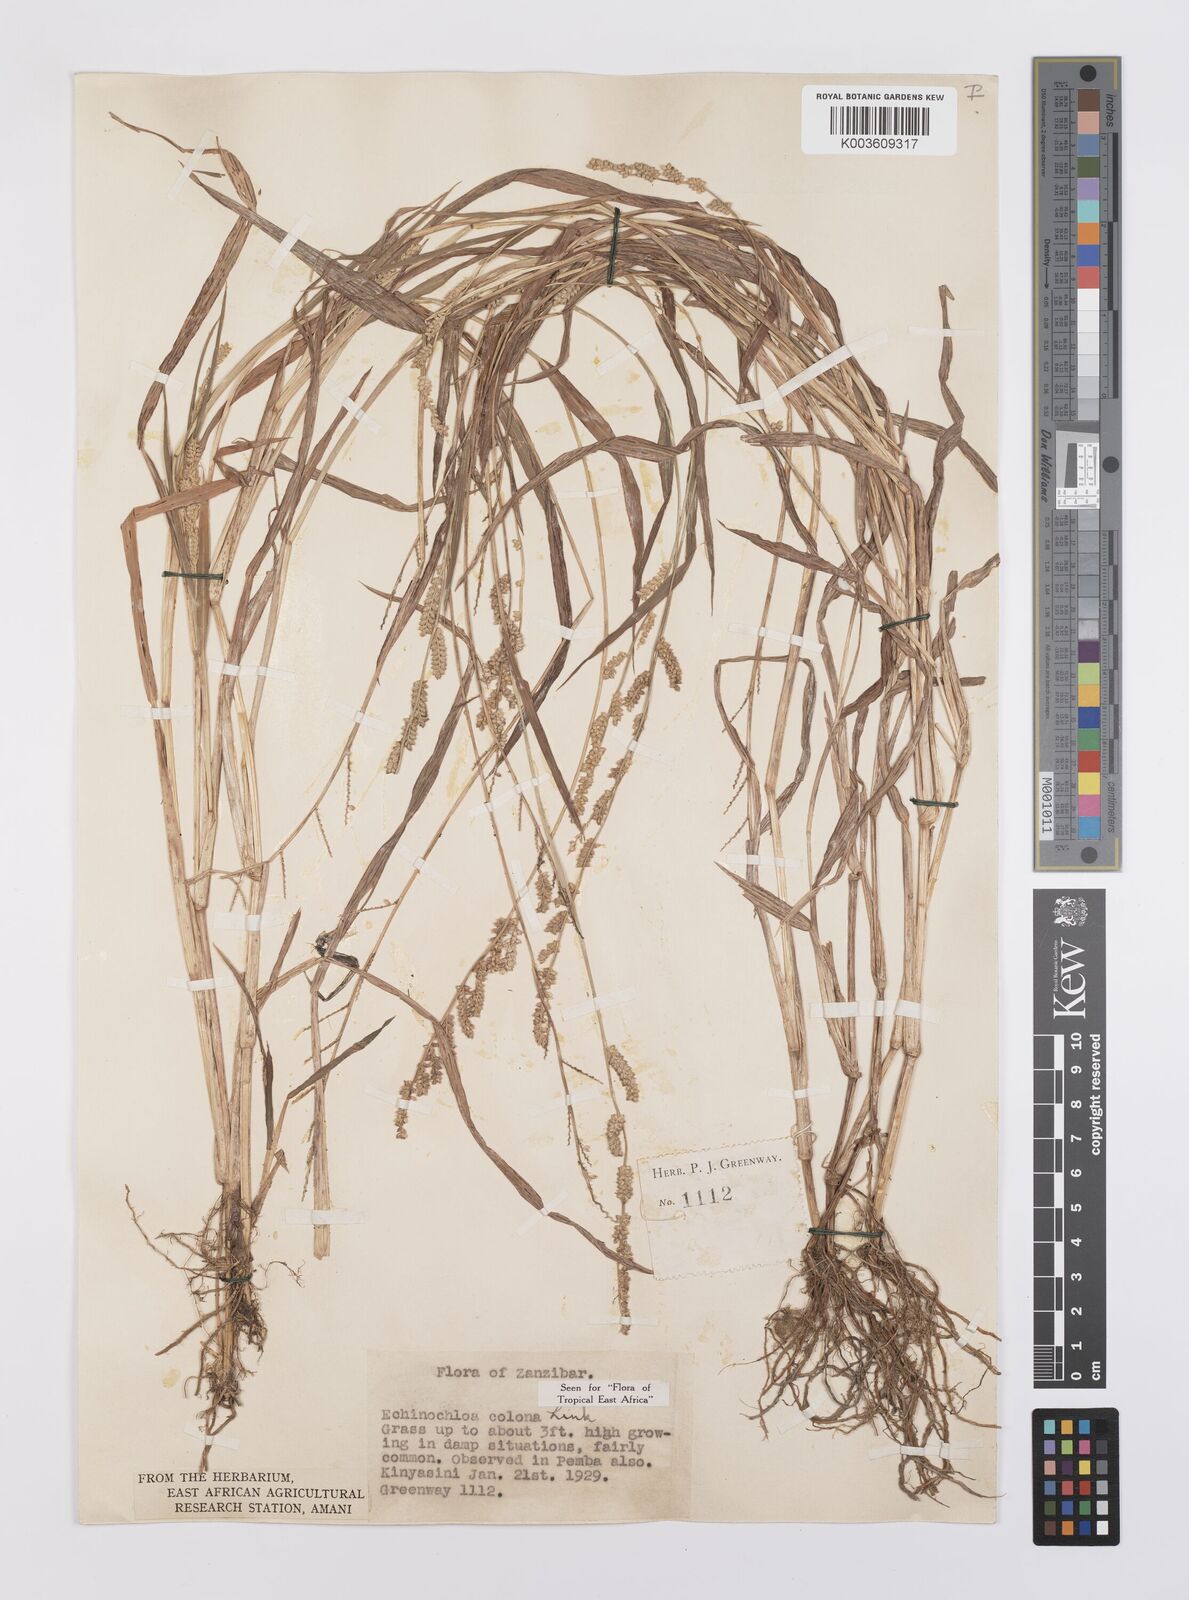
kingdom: Plantae
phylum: Tracheophyta
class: Liliopsida
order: Poales
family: Poaceae
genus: Echinochloa
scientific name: Echinochloa colonum
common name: Jungle rice
